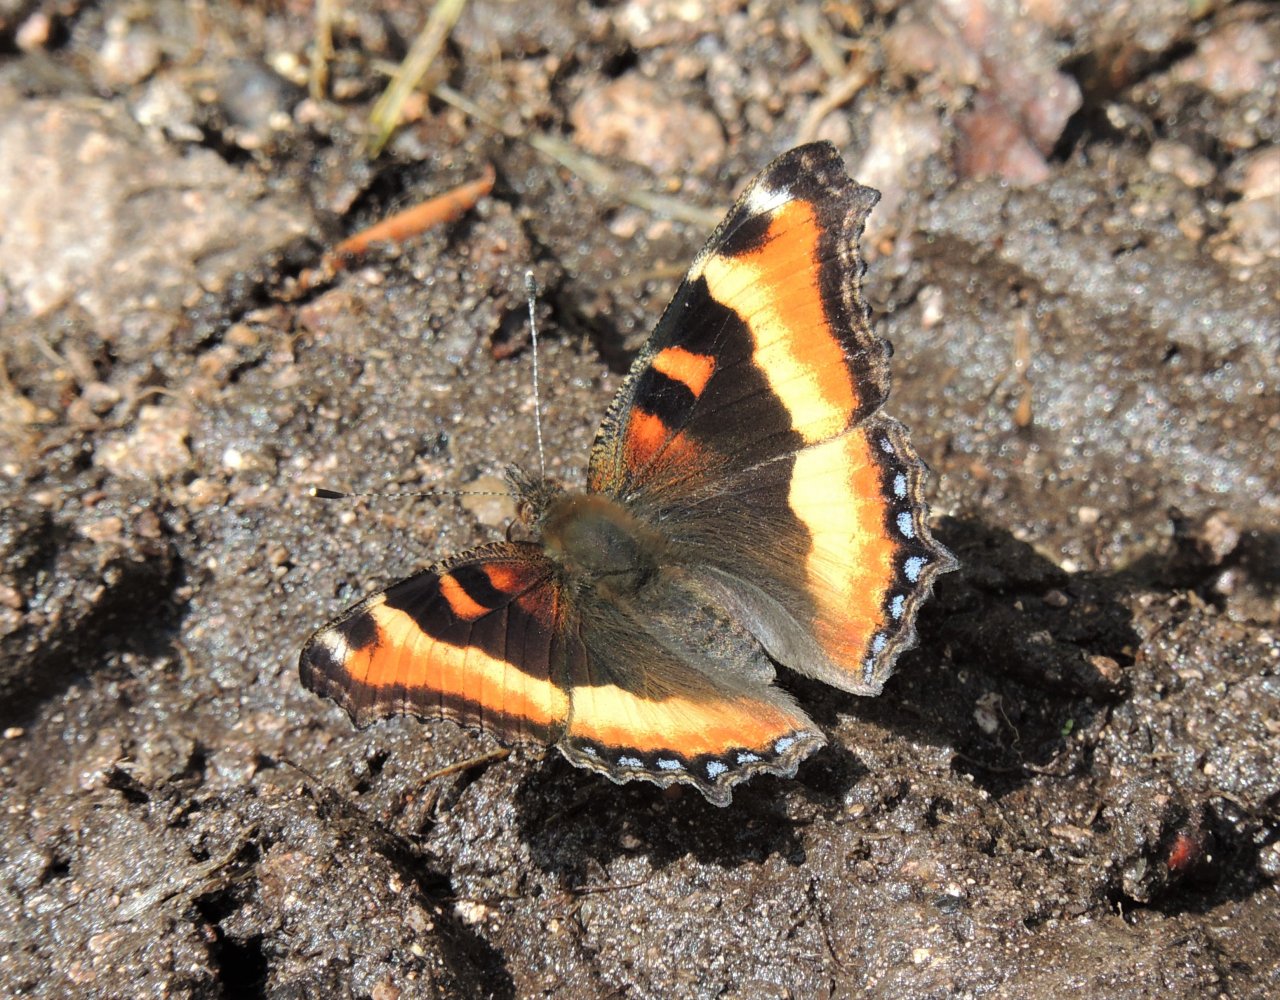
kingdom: Animalia
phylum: Arthropoda
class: Insecta
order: Lepidoptera
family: Nymphalidae
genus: Aglais
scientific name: Aglais milberti
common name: Milbert's Tortoiseshell
